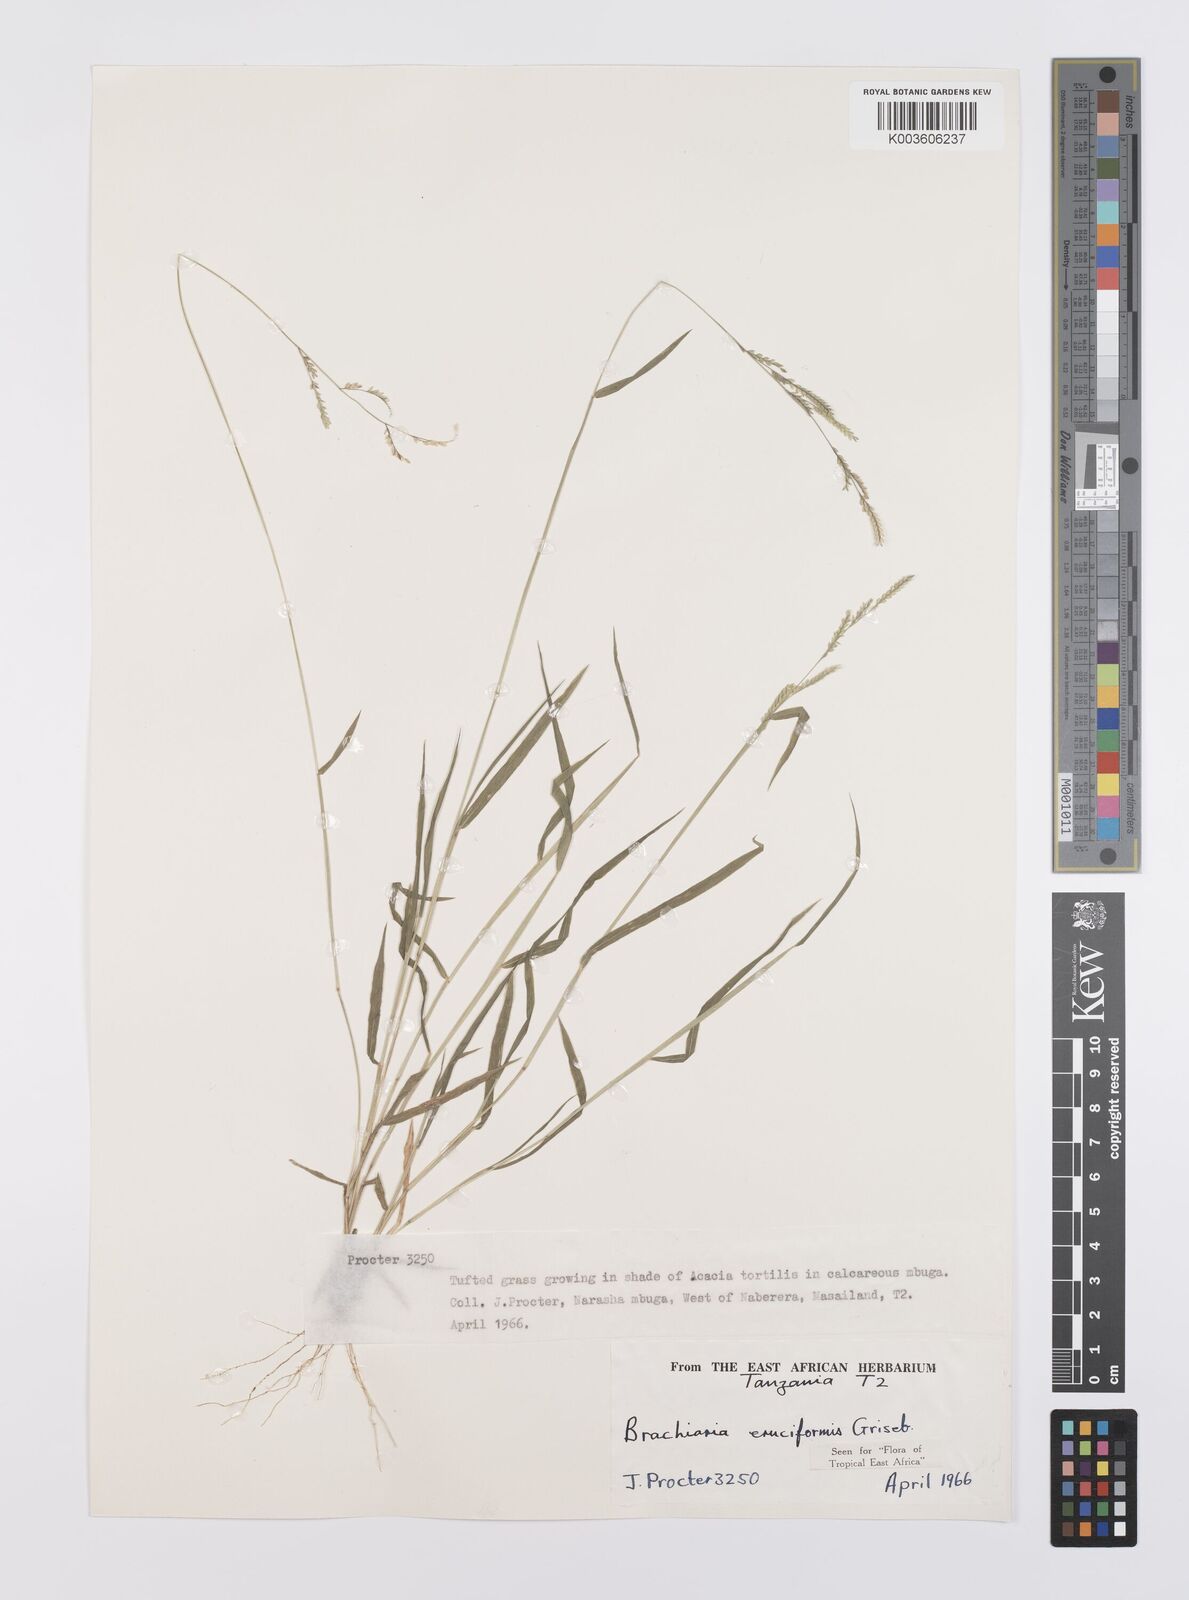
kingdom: Plantae
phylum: Tracheophyta
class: Liliopsida
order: Poales
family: Poaceae
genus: Moorochloa
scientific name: Moorochloa eruciformis
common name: Sweet signalgrass
